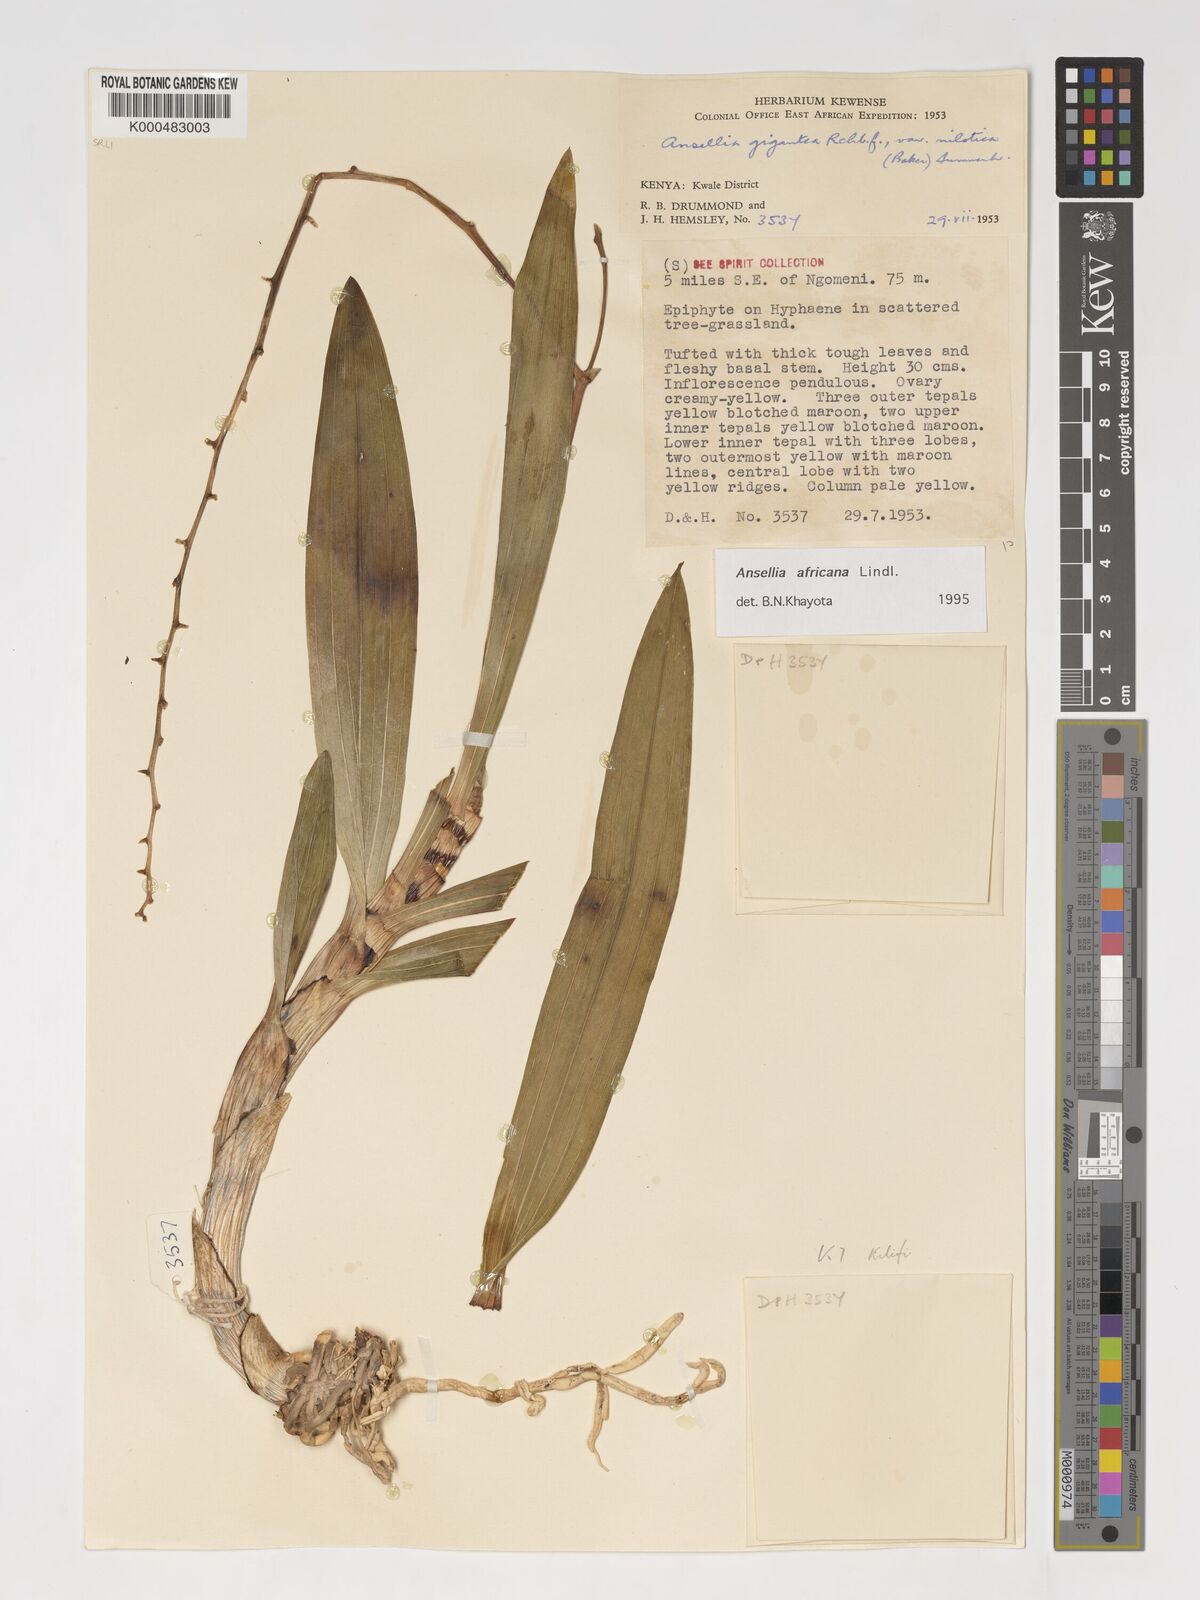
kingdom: Plantae
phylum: Tracheophyta
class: Liliopsida
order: Asparagales
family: Orchidaceae
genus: Ansellia
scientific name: Ansellia africana
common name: African ansellia
